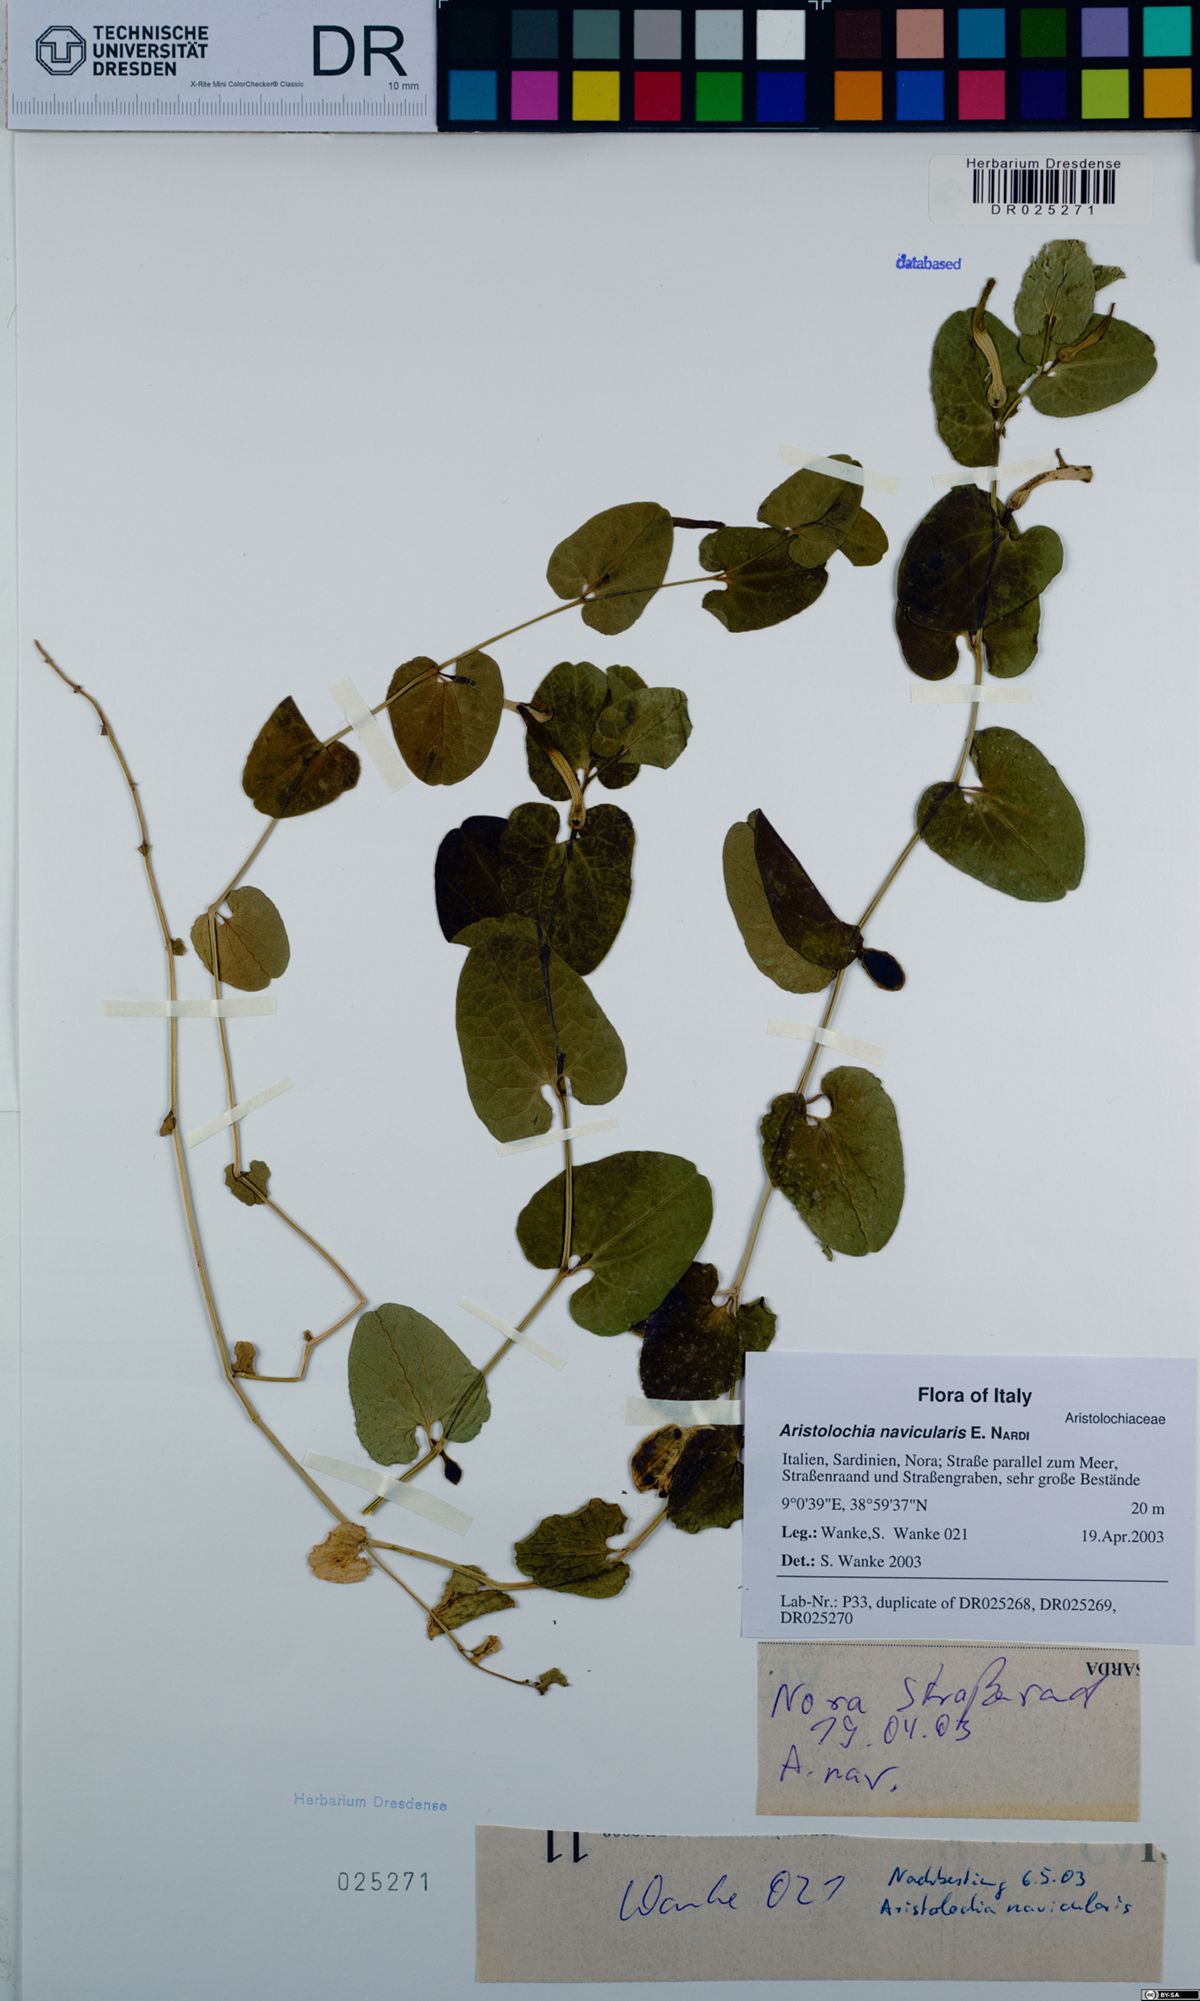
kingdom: Plantae
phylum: Tracheophyta
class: Magnoliopsida
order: Piperales
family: Aristolochiaceae
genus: Aristolochia
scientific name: Aristolochia navicularis
